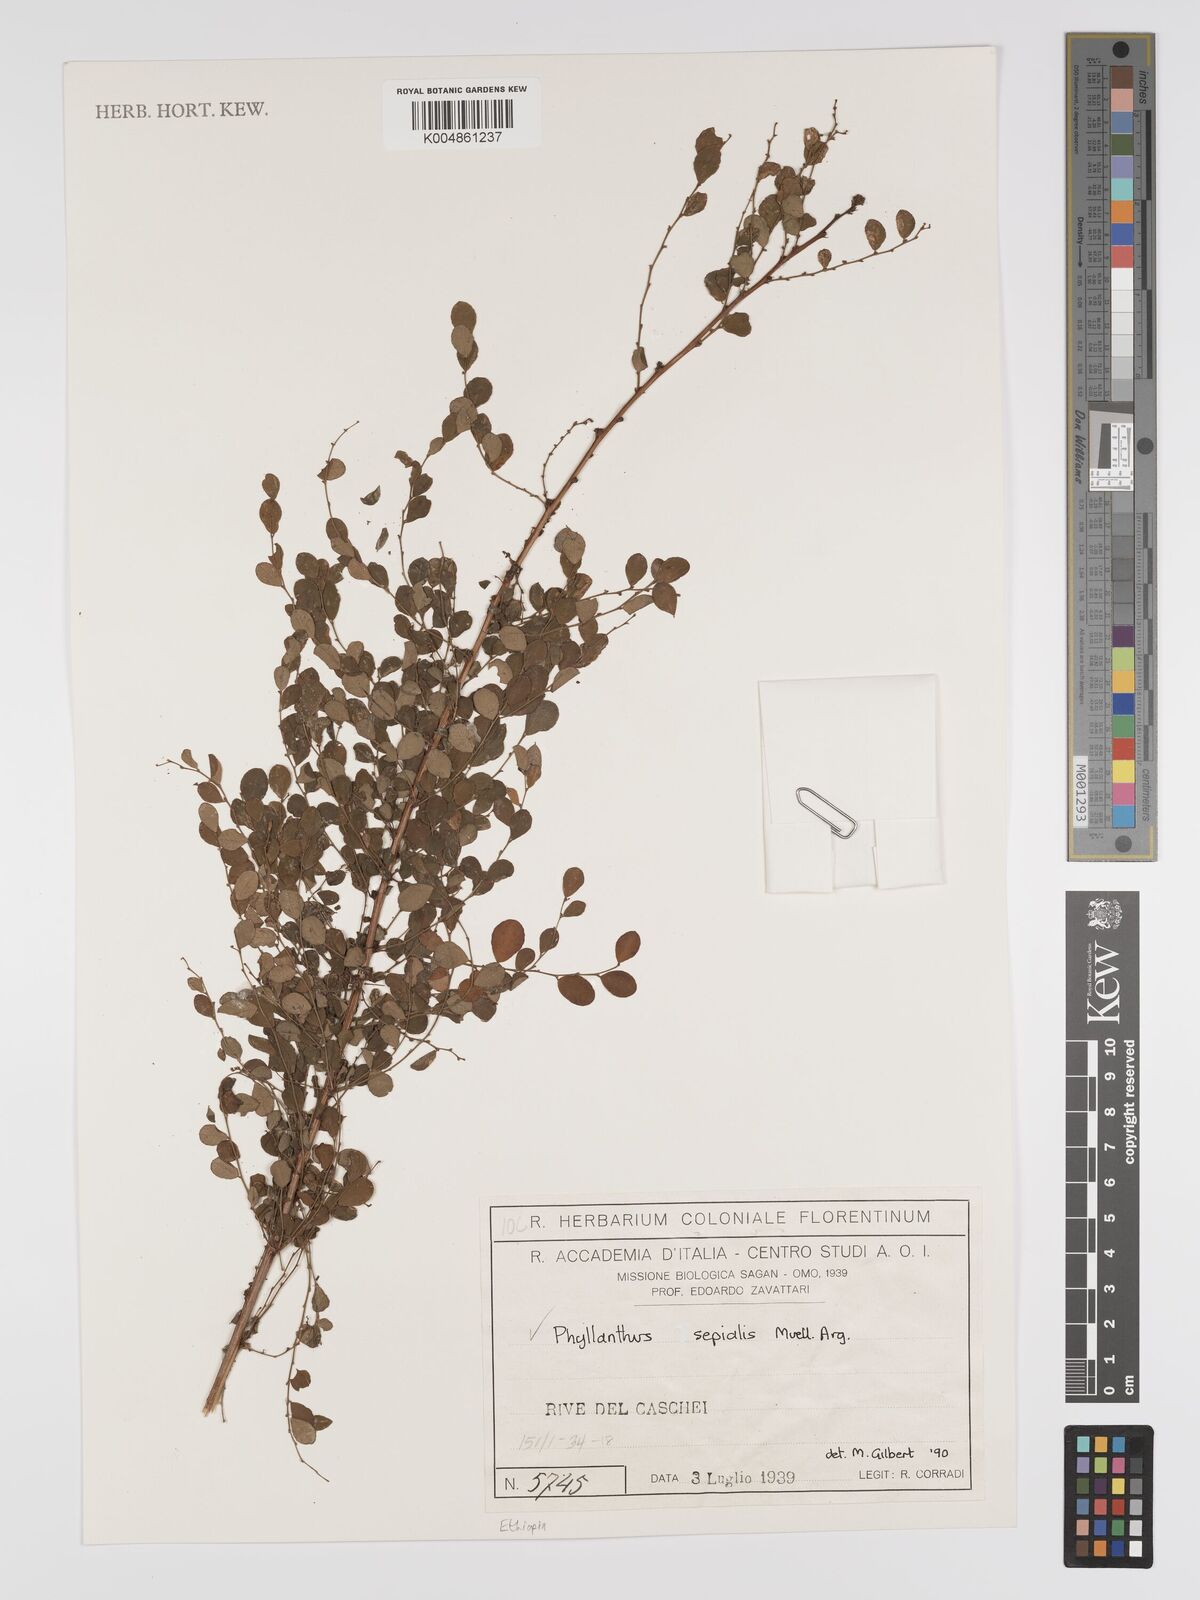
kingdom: Plantae
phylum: Tracheophyta
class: Magnoliopsida
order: Malpighiales
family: Phyllanthaceae
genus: Phyllanthus
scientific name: Phyllanthus sepialis
